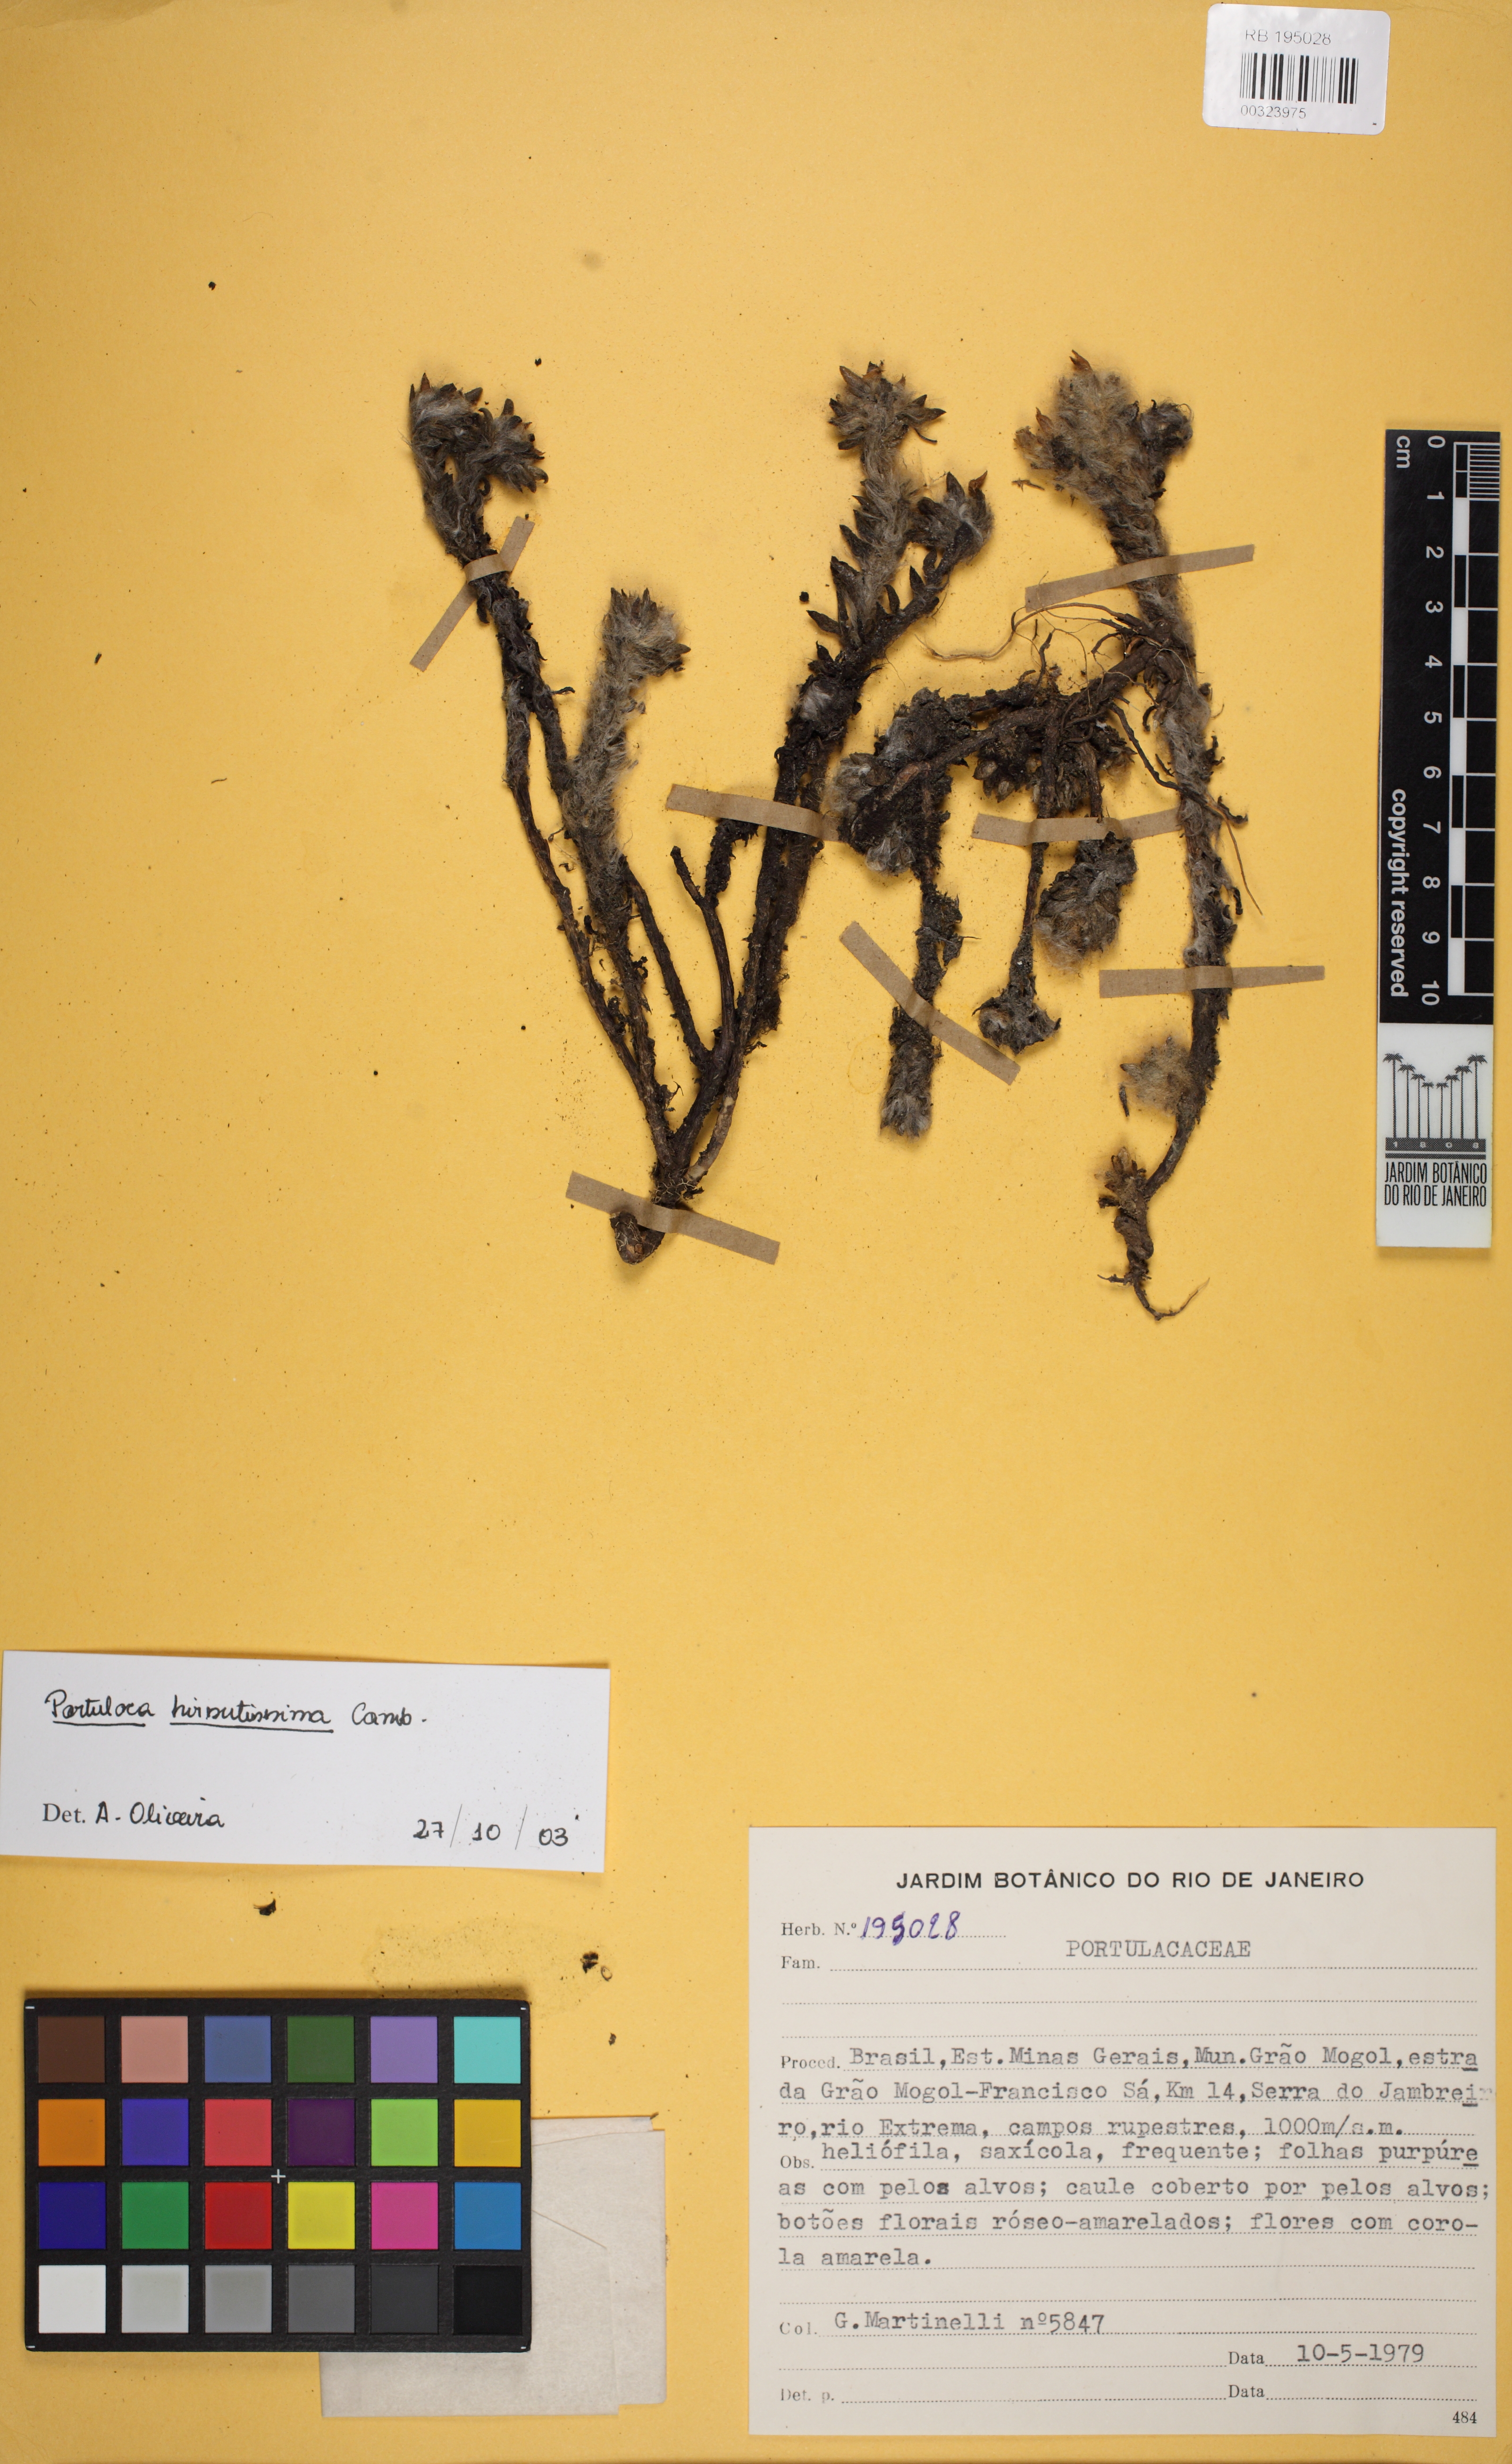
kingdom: Plantae
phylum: Tracheophyta
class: Magnoliopsida
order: Caryophyllales
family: Portulacaceae
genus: Portulaca
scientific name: Portulaca hirsutissima
